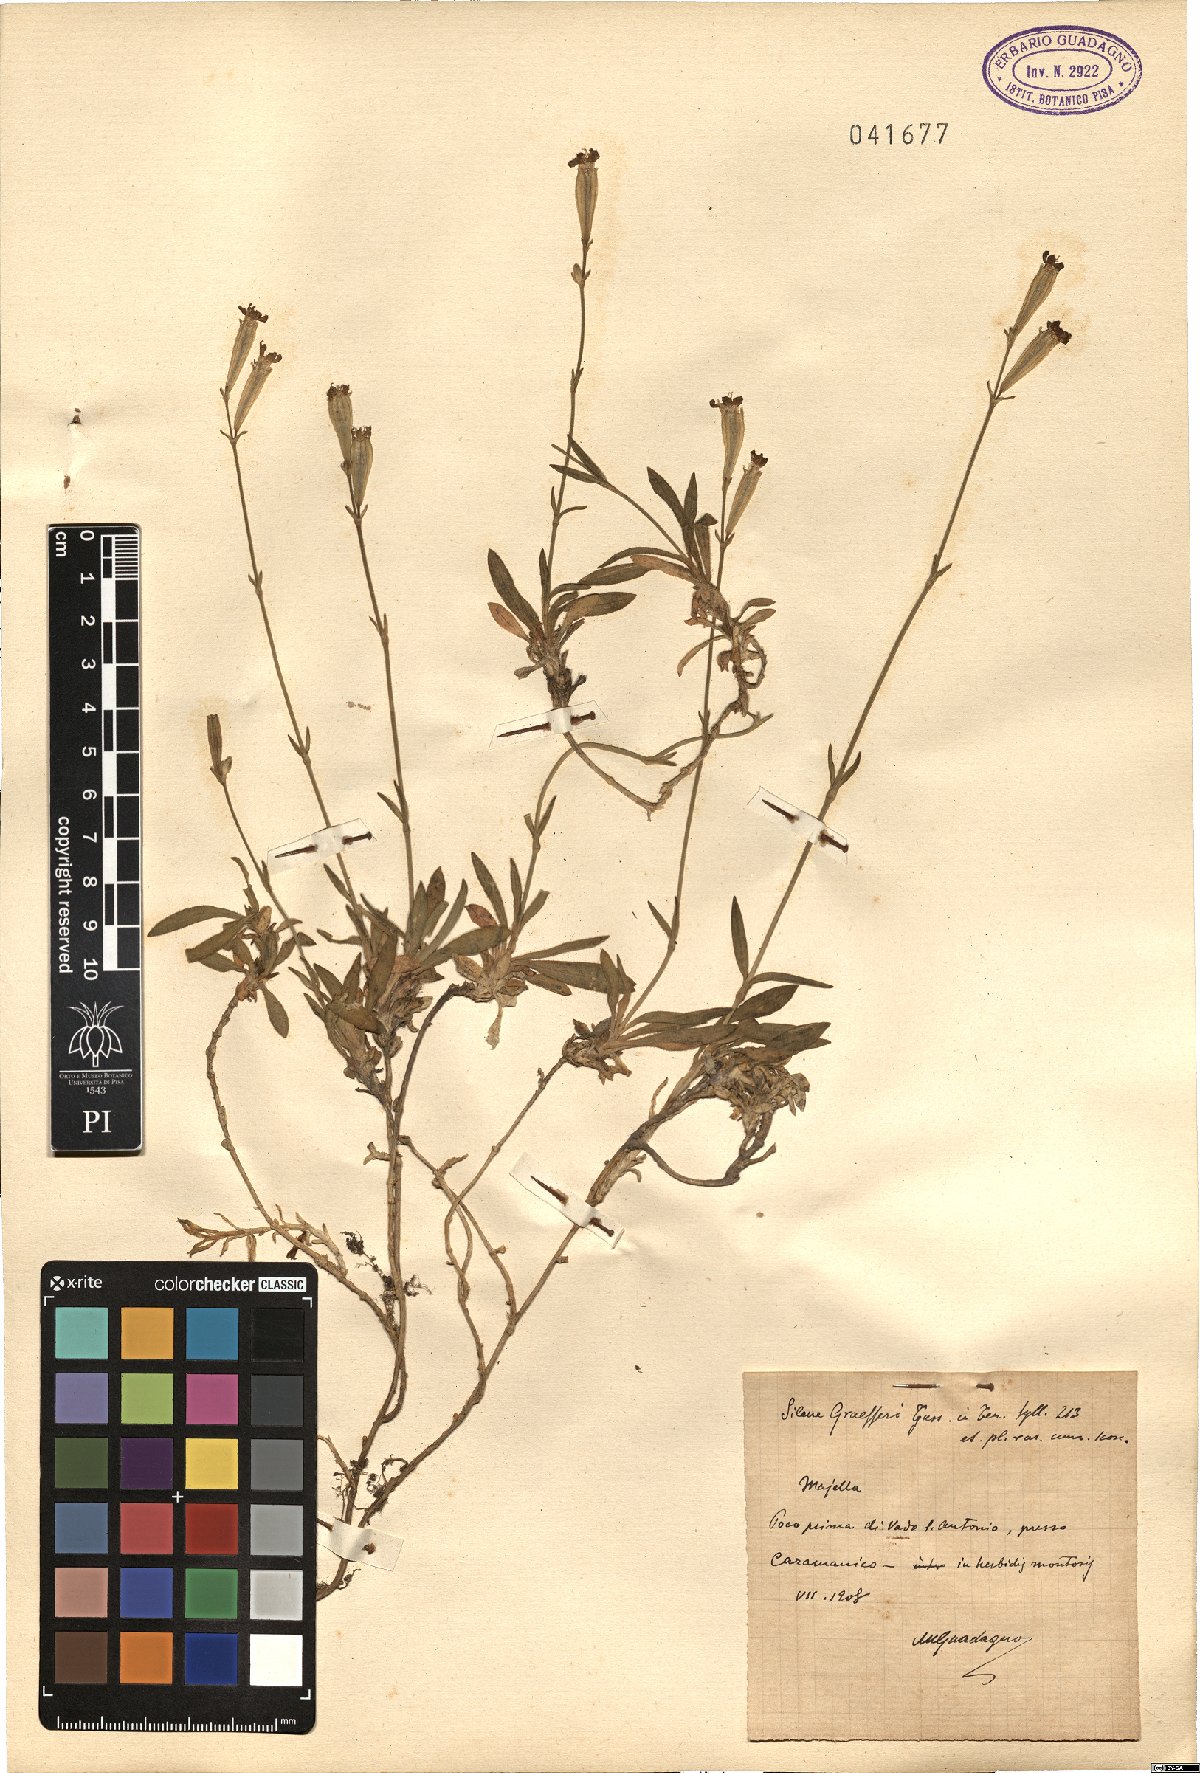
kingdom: Plantae
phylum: Tracheophyta
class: Magnoliopsida
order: Caryophyllales
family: Caryophyllaceae
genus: Silene
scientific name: Silene ciliata
